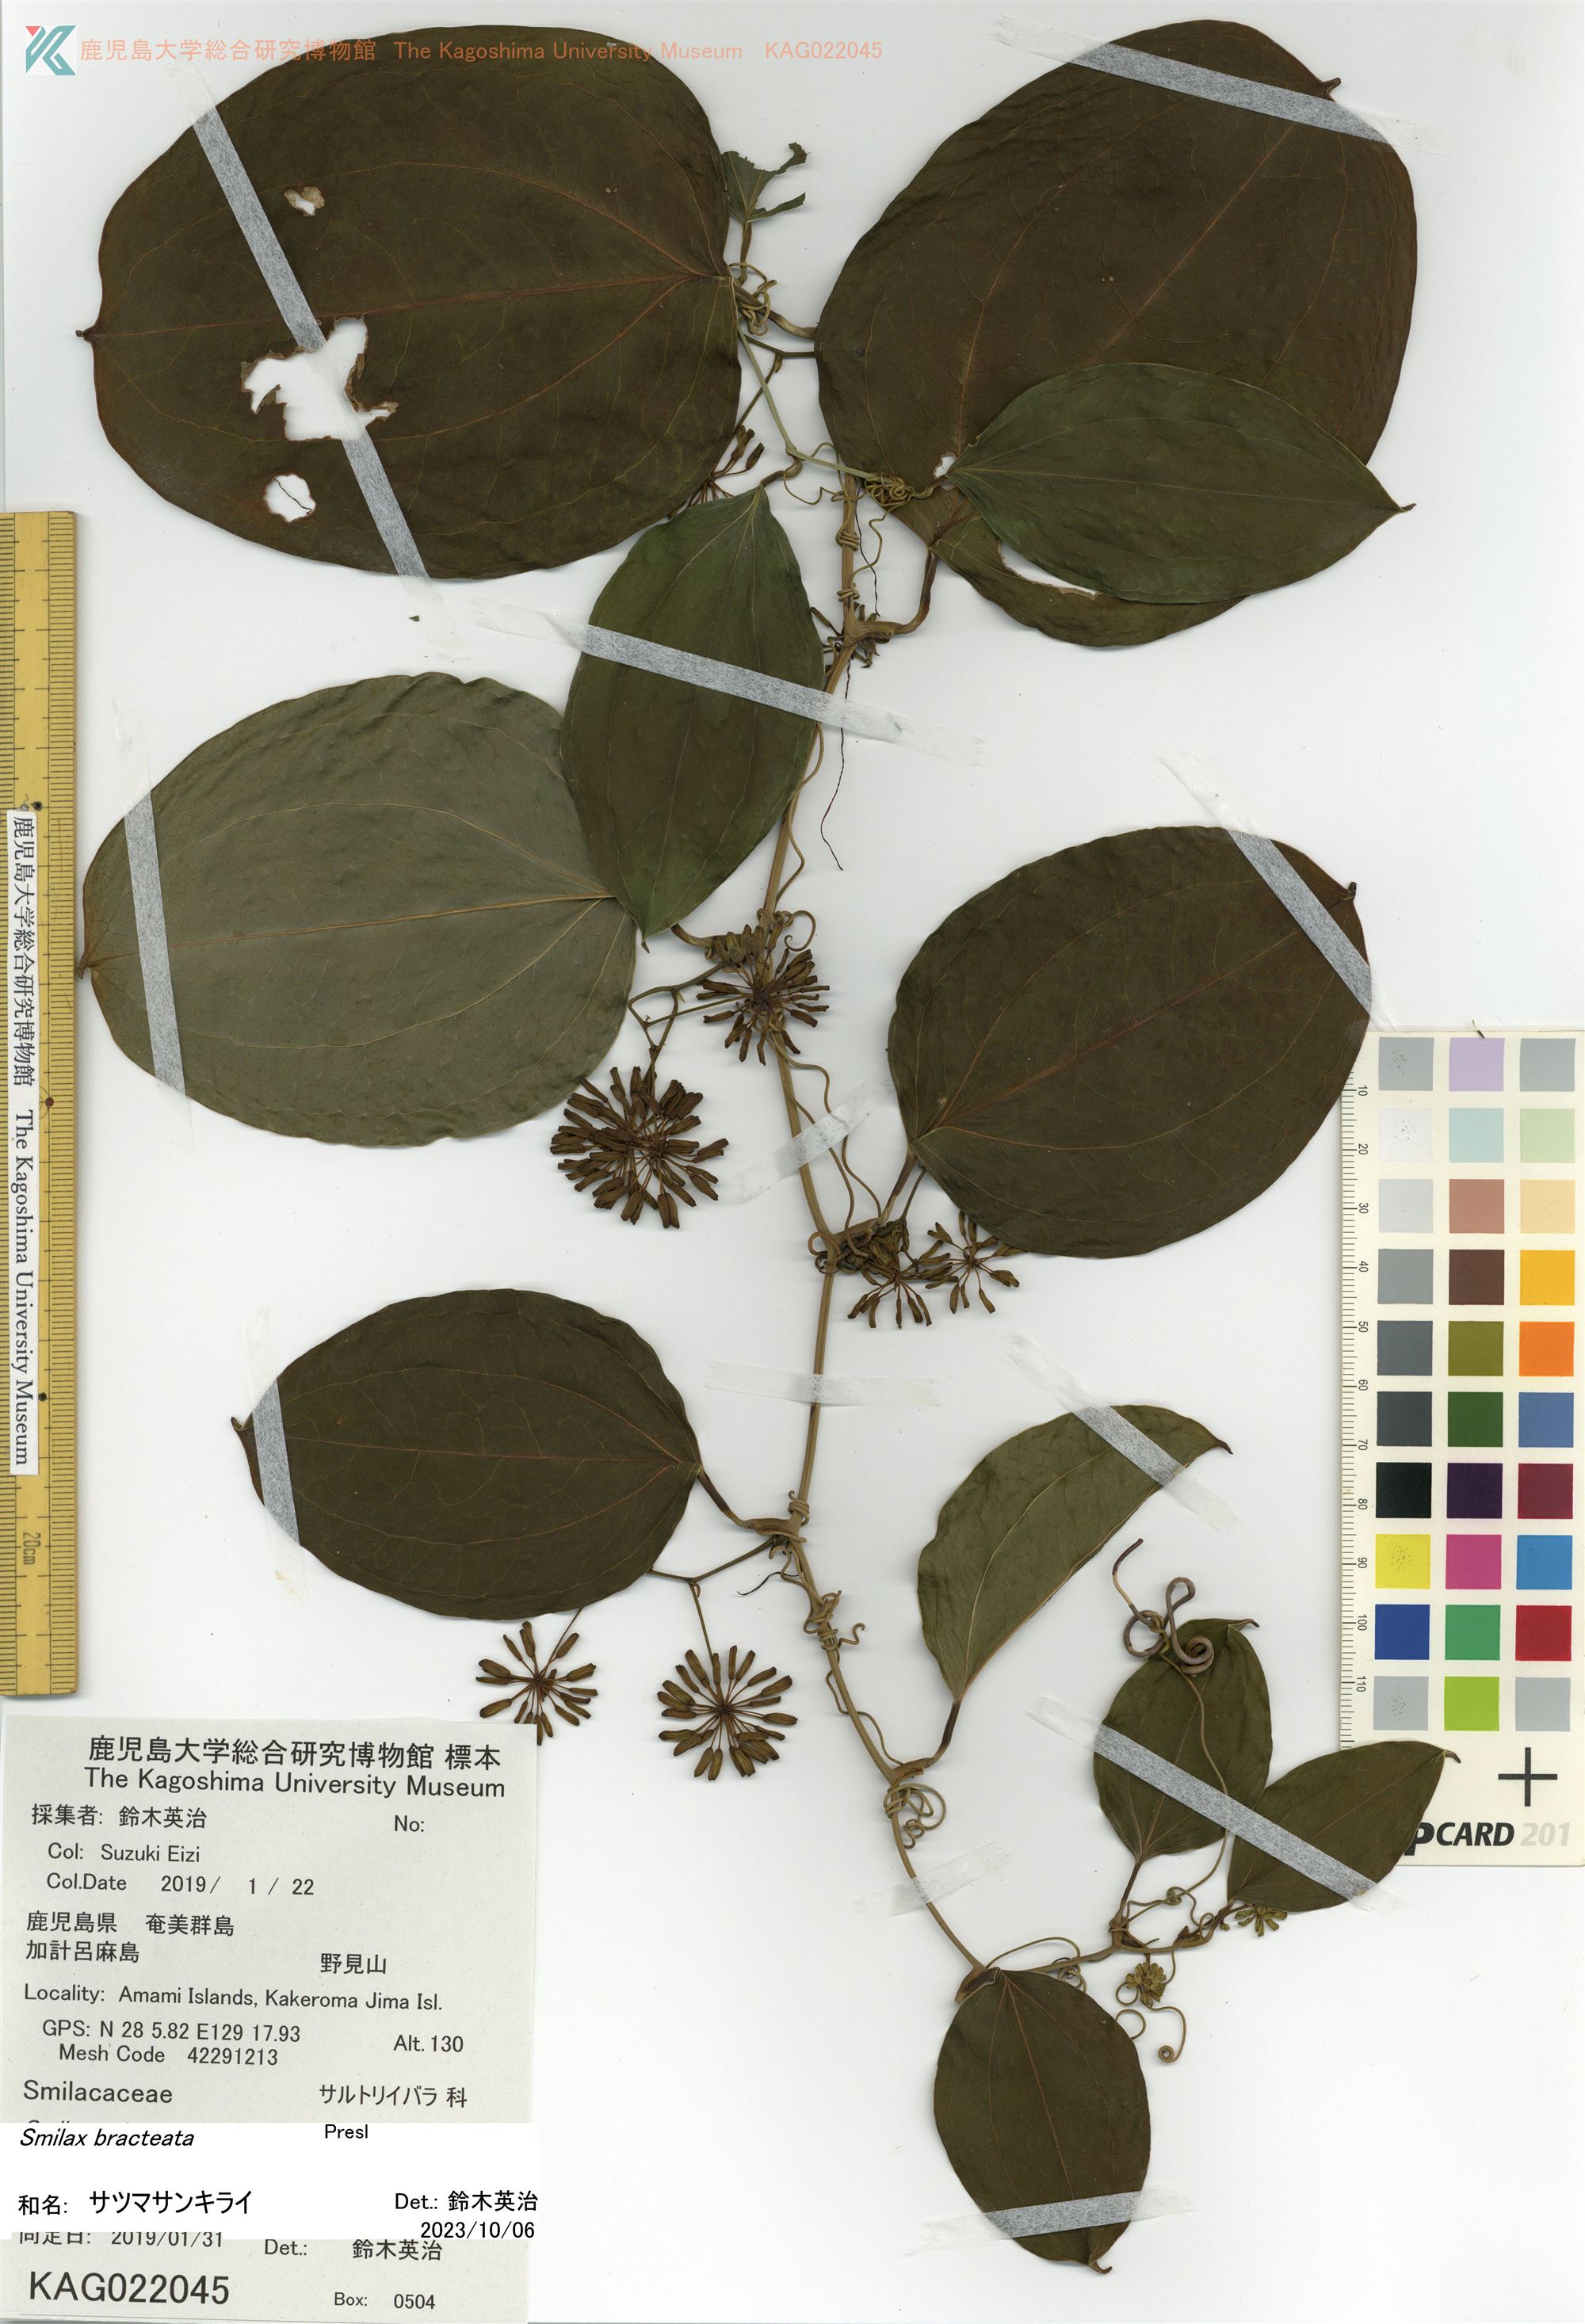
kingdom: Plantae
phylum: Tracheophyta
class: Liliopsida
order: Liliales
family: Smilacaceae
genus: Smilax
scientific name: Smilax sebeana
